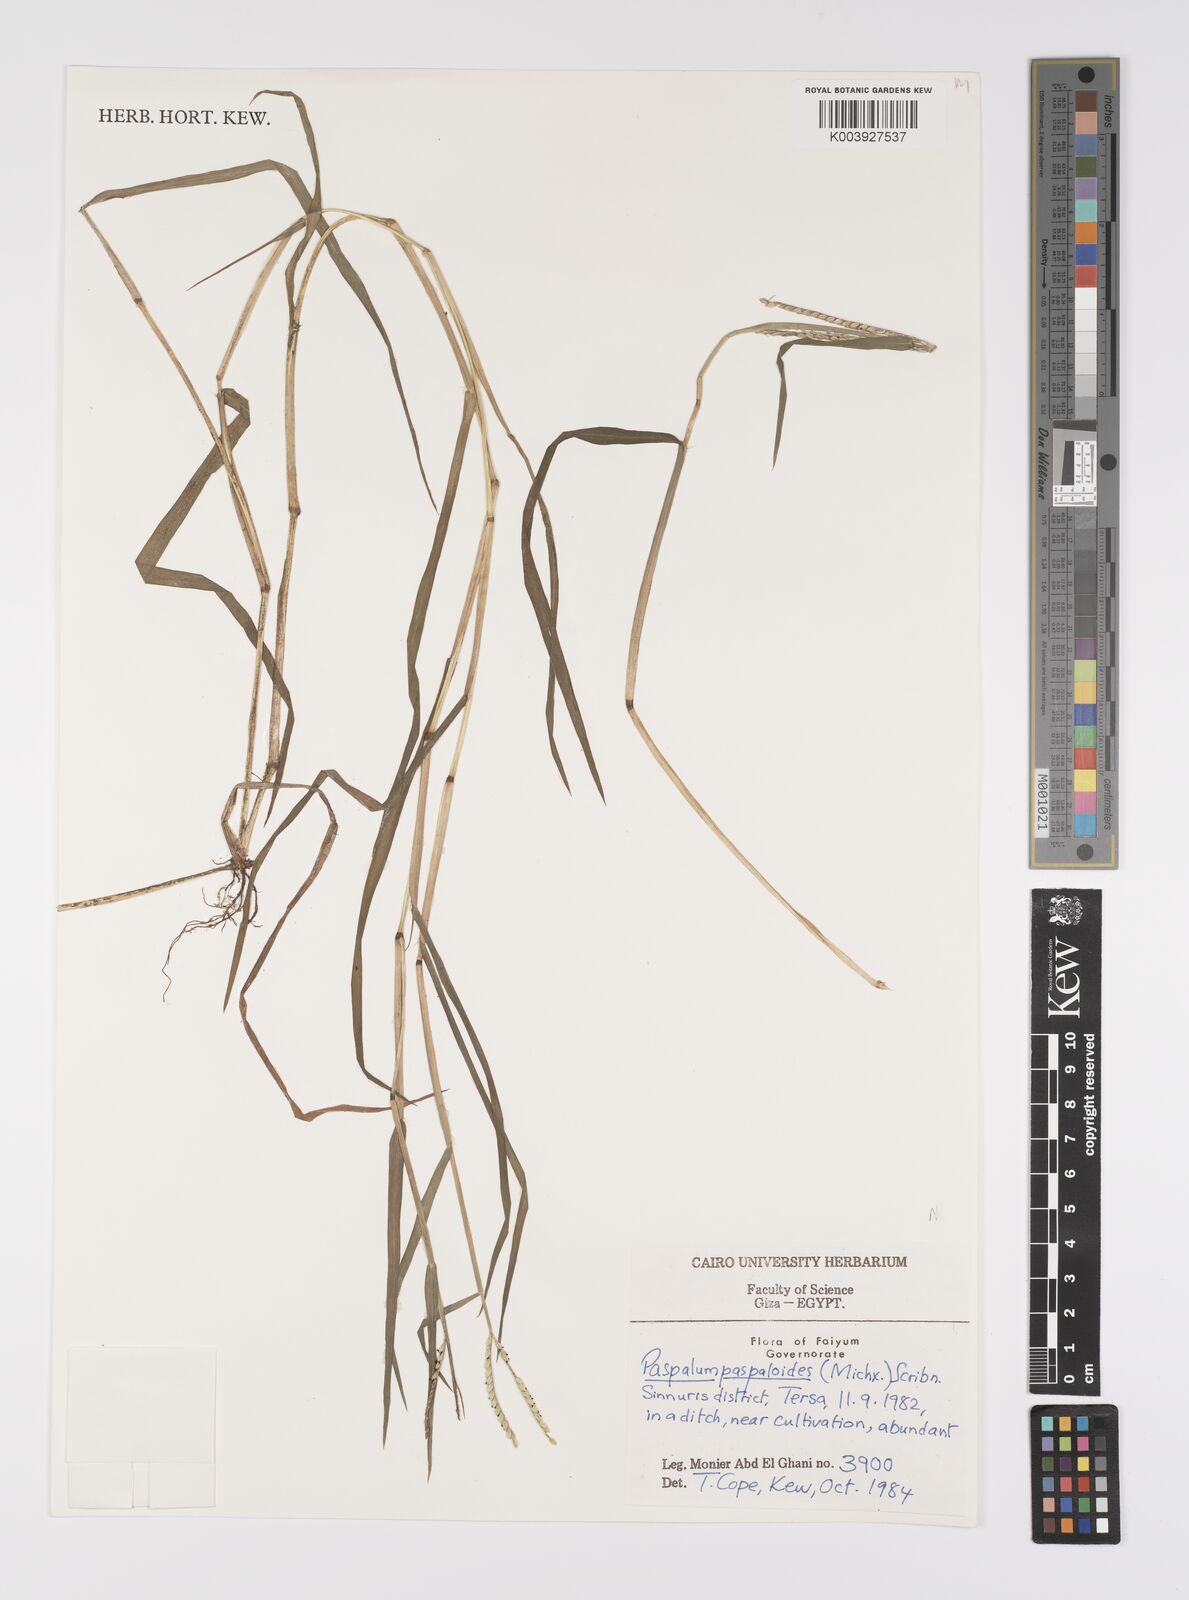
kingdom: Plantae
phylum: Tracheophyta
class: Liliopsida
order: Poales
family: Poaceae
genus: Paspalum
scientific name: Paspalum distichum
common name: Knotgrass
